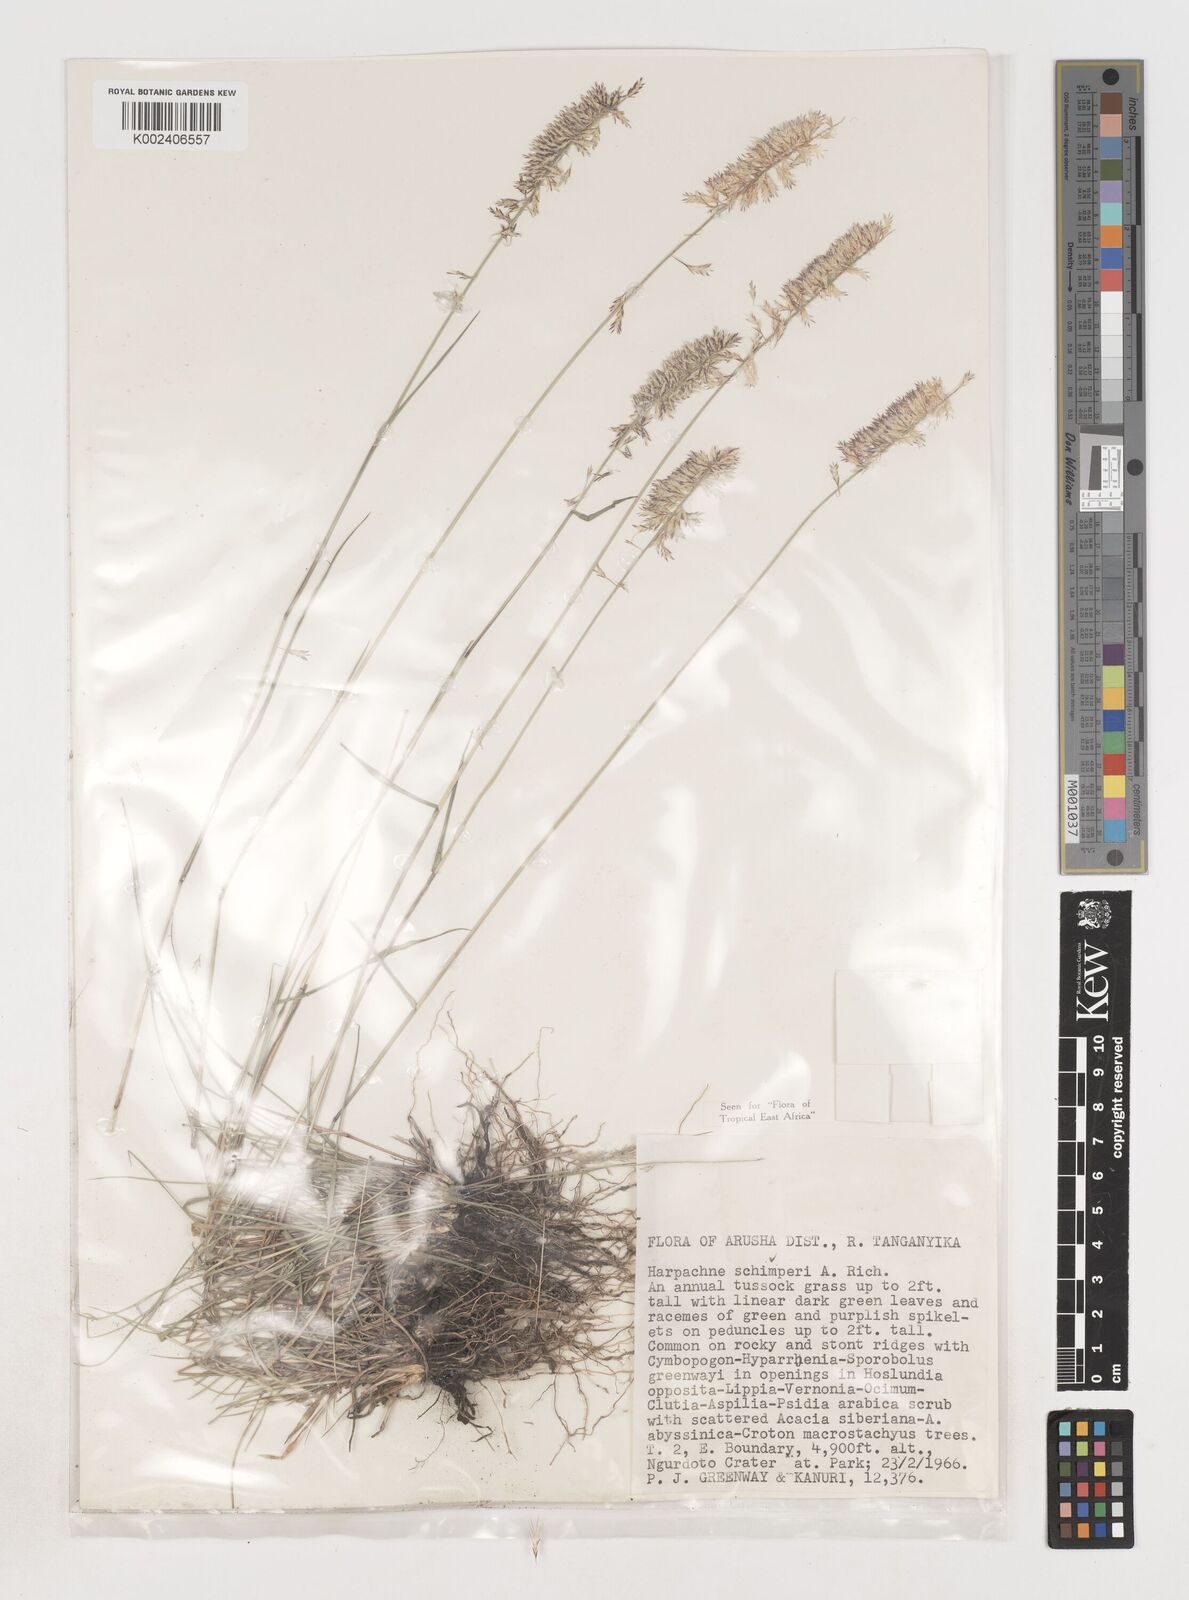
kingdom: Plantae
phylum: Tracheophyta
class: Liliopsida
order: Poales
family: Poaceae
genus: Harpachne
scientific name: Harpachne schimperi
